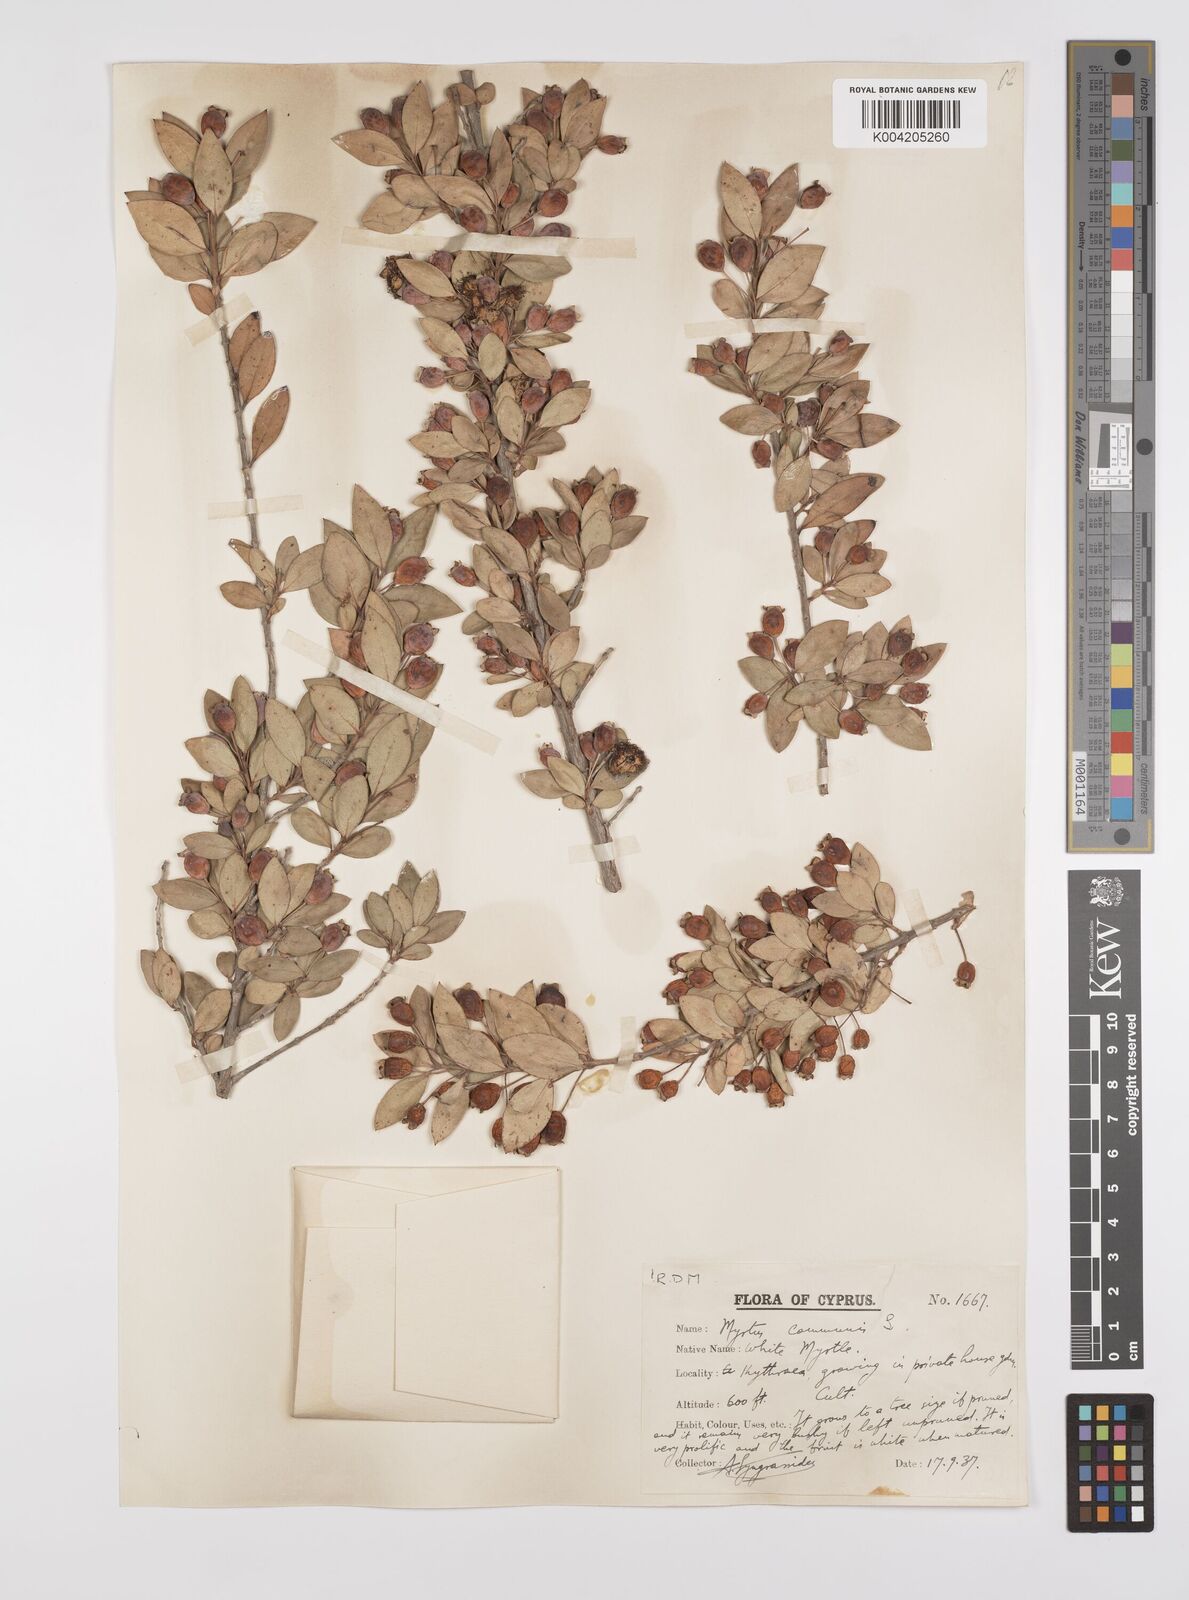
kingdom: Plantae
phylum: Tracheophyta
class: Magnoliopsida
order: Myrtales
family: Myrtaceae
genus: Myrtus
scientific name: Myrtus communis
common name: Myrtle
